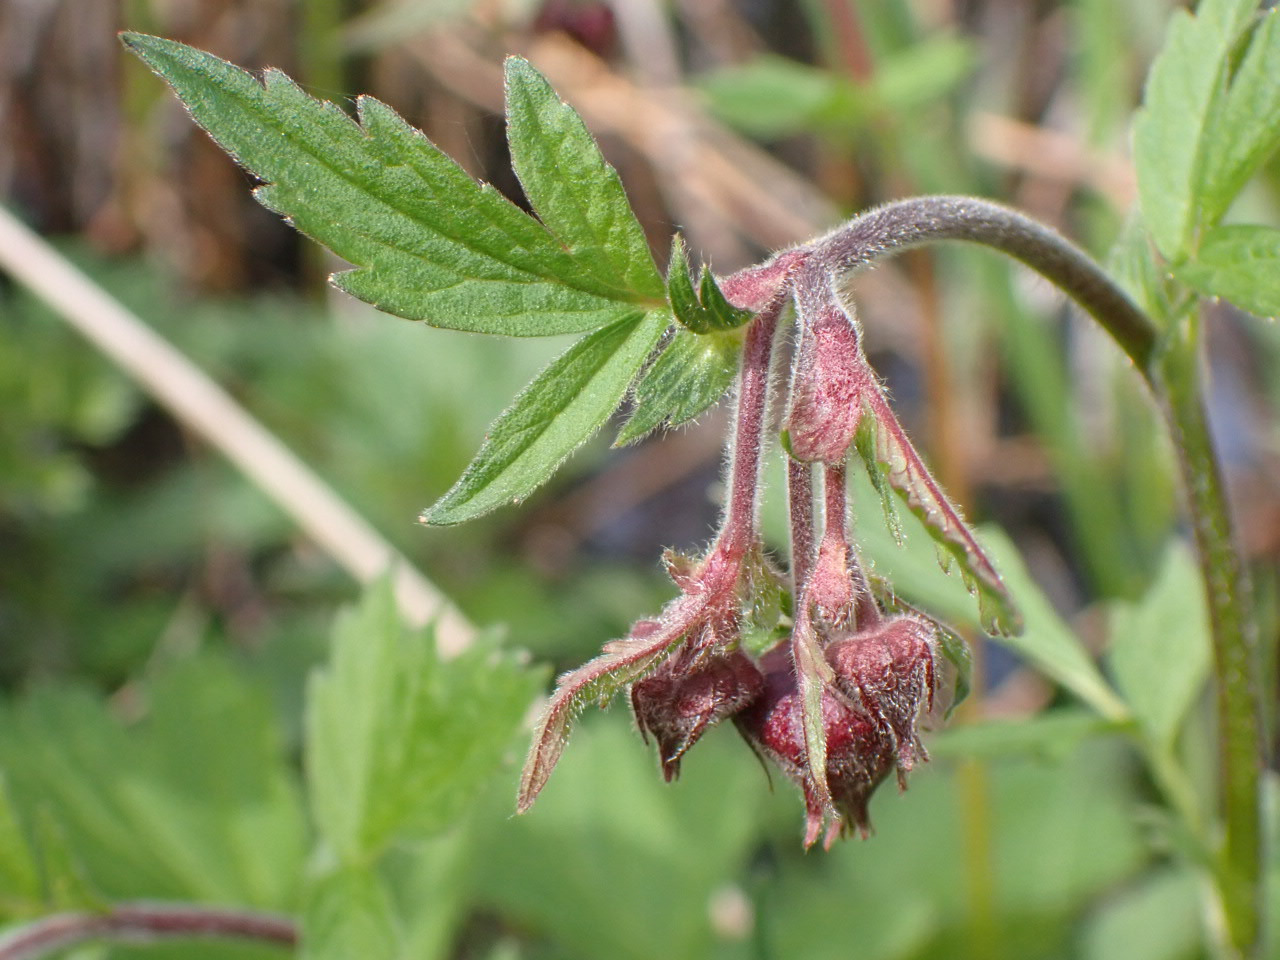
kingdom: Plantae
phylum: Tracheophyta
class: Magnoliopsida
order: Rosales
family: Rosaceae
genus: Geum
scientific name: Geum rivale
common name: Eng-nellikerod
